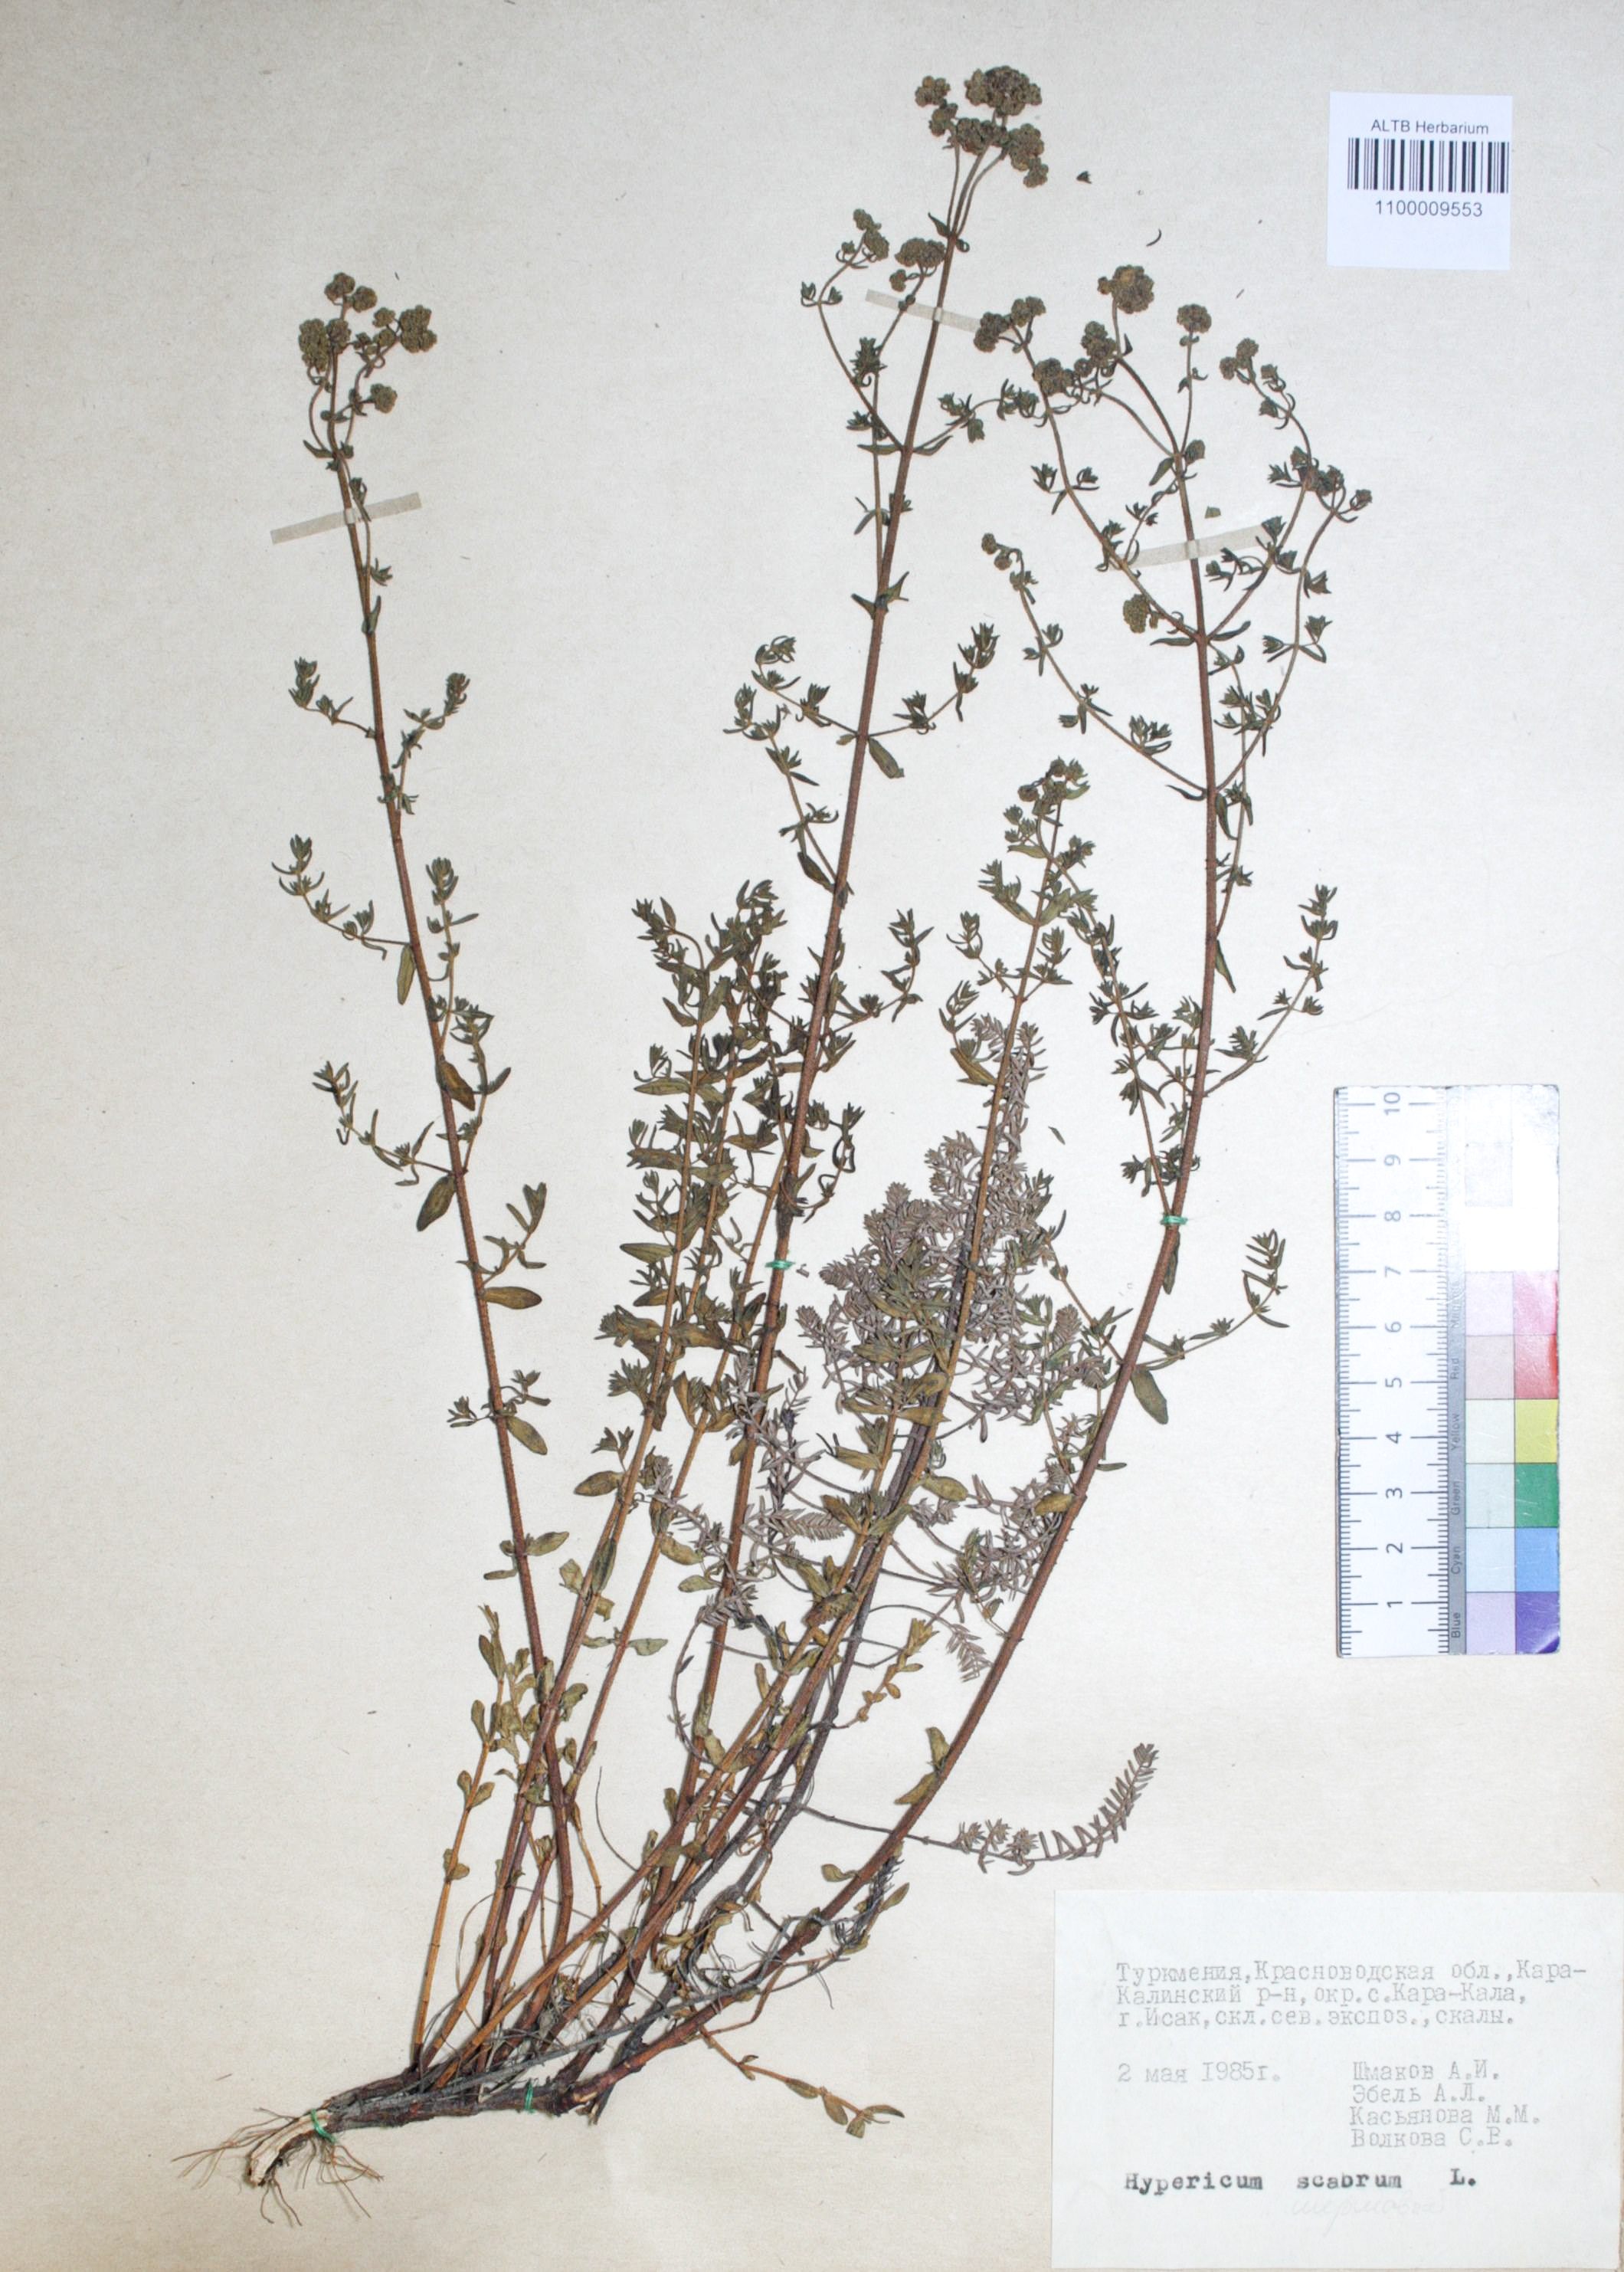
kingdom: Plantae
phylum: Tracheophyta
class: Magnoliopsida
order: Malpighiales
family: Hypericaceae
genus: Hypericum
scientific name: Hypericum scabrum
